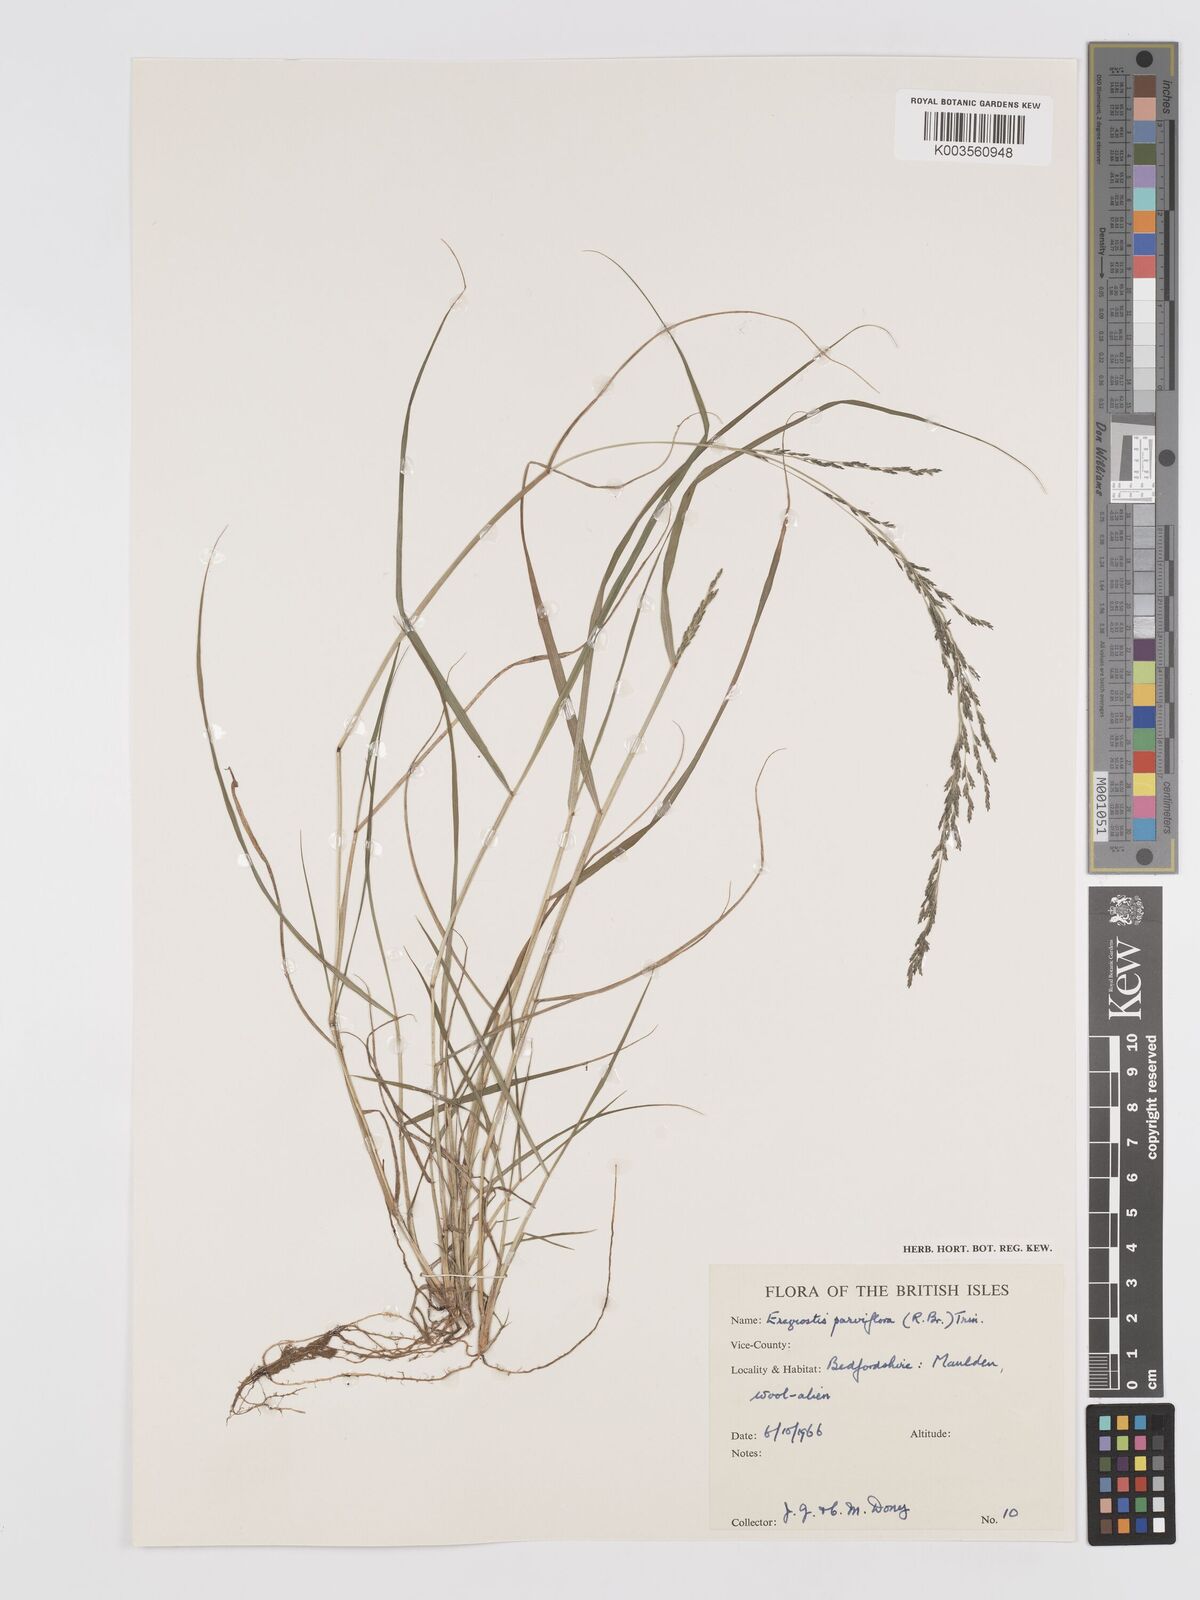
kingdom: Plantae
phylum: Tracheophyta
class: Liliopsida
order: Poales
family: Poaceae
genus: Eragrostis
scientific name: Eragrostis parviflora
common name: Weeping love-grass
